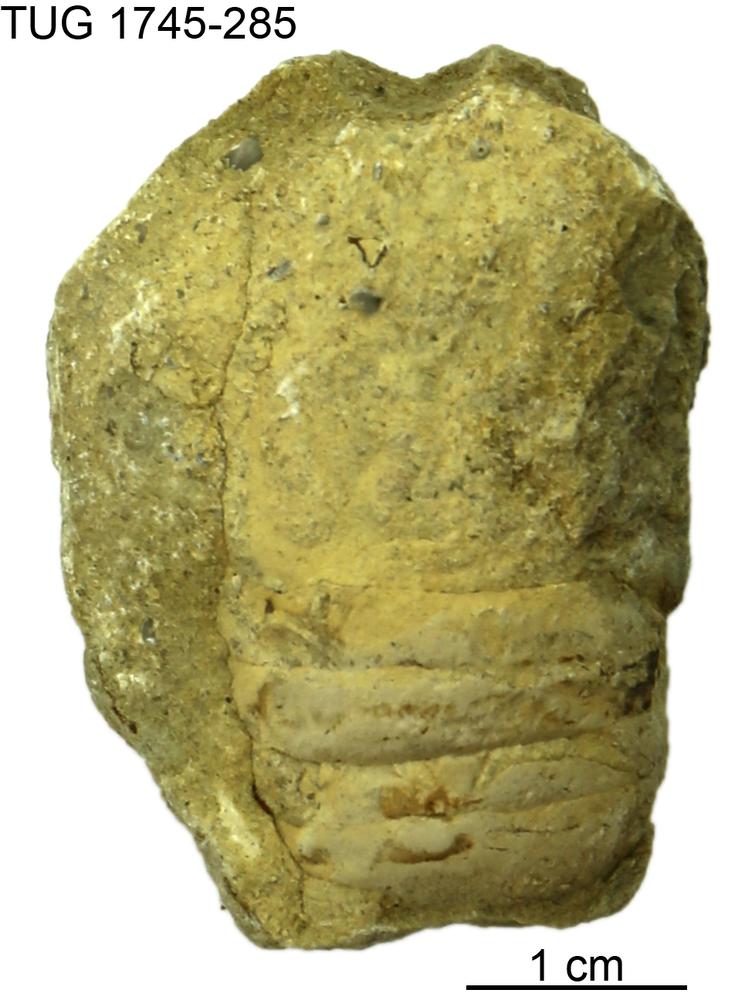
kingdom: Animalia
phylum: Mollusca
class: Cephalopoda
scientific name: Cephalopoda
